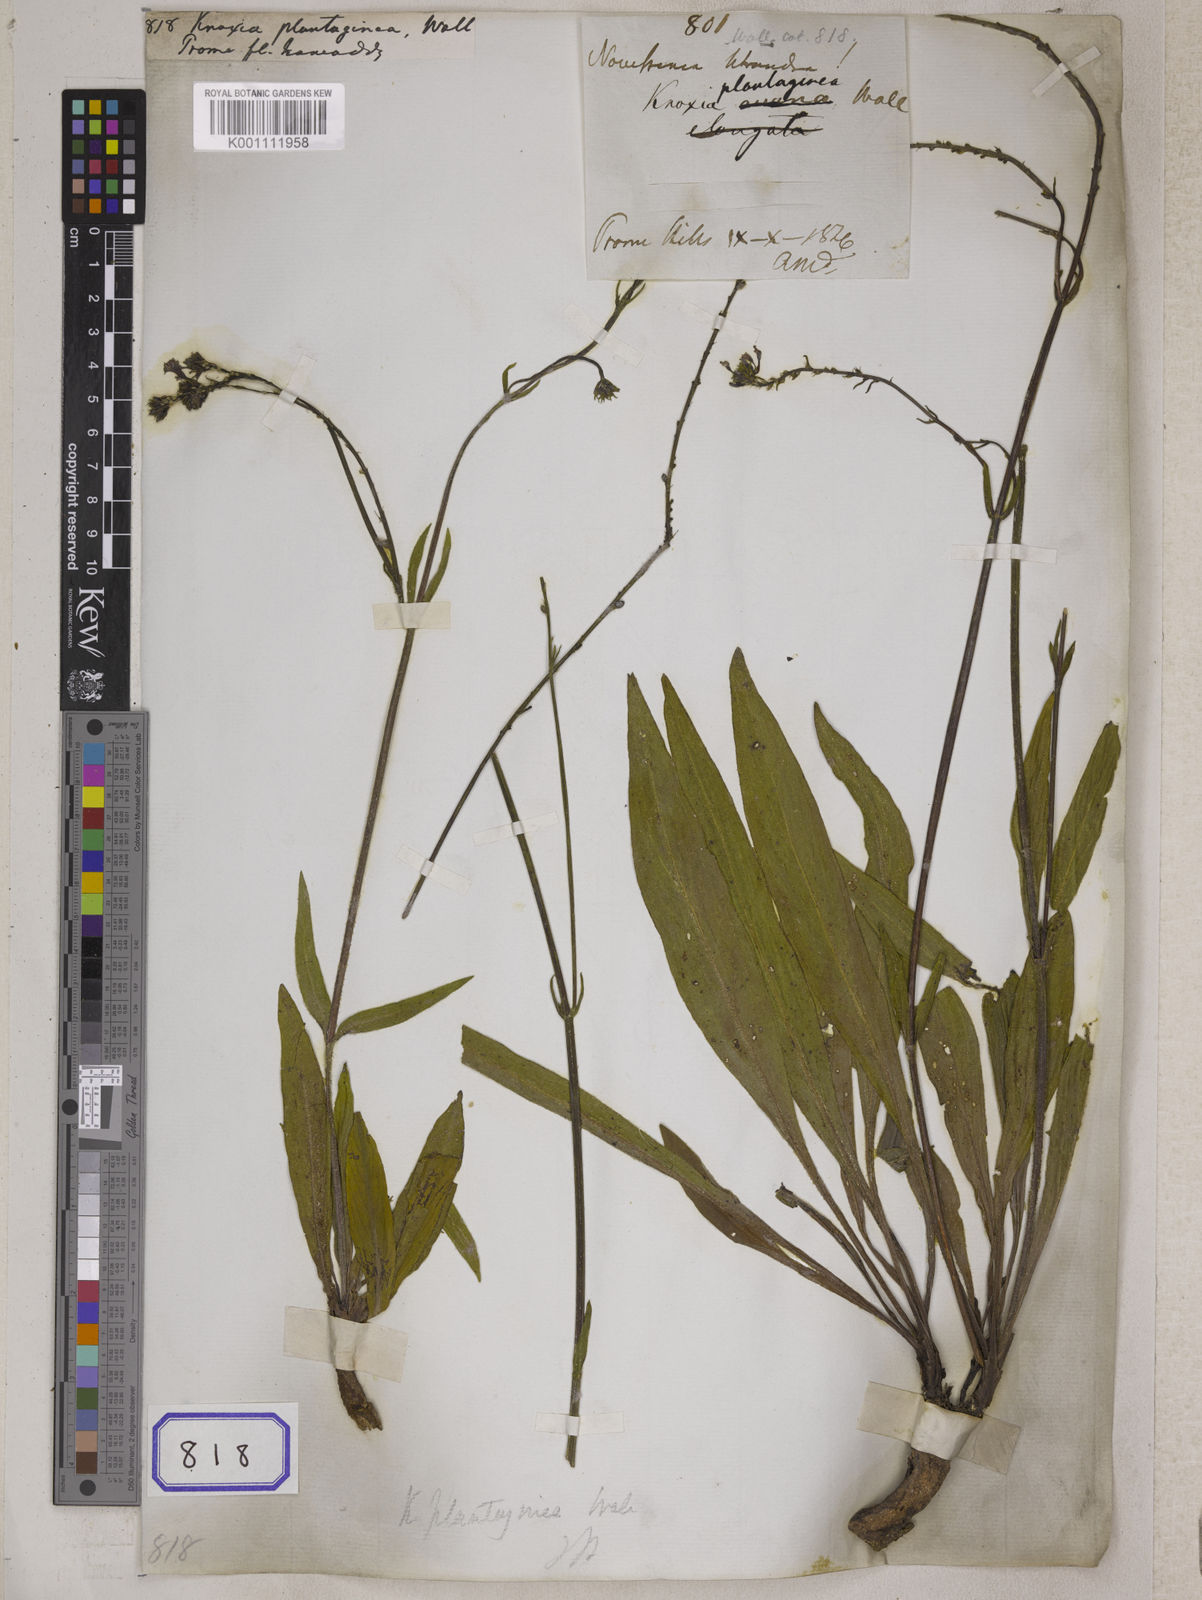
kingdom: Plantae
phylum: Tracheophyta
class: Magnoliopsida
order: Gentianales
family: Rubiaceae
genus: Knoxia
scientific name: Knoxia plantaginea
